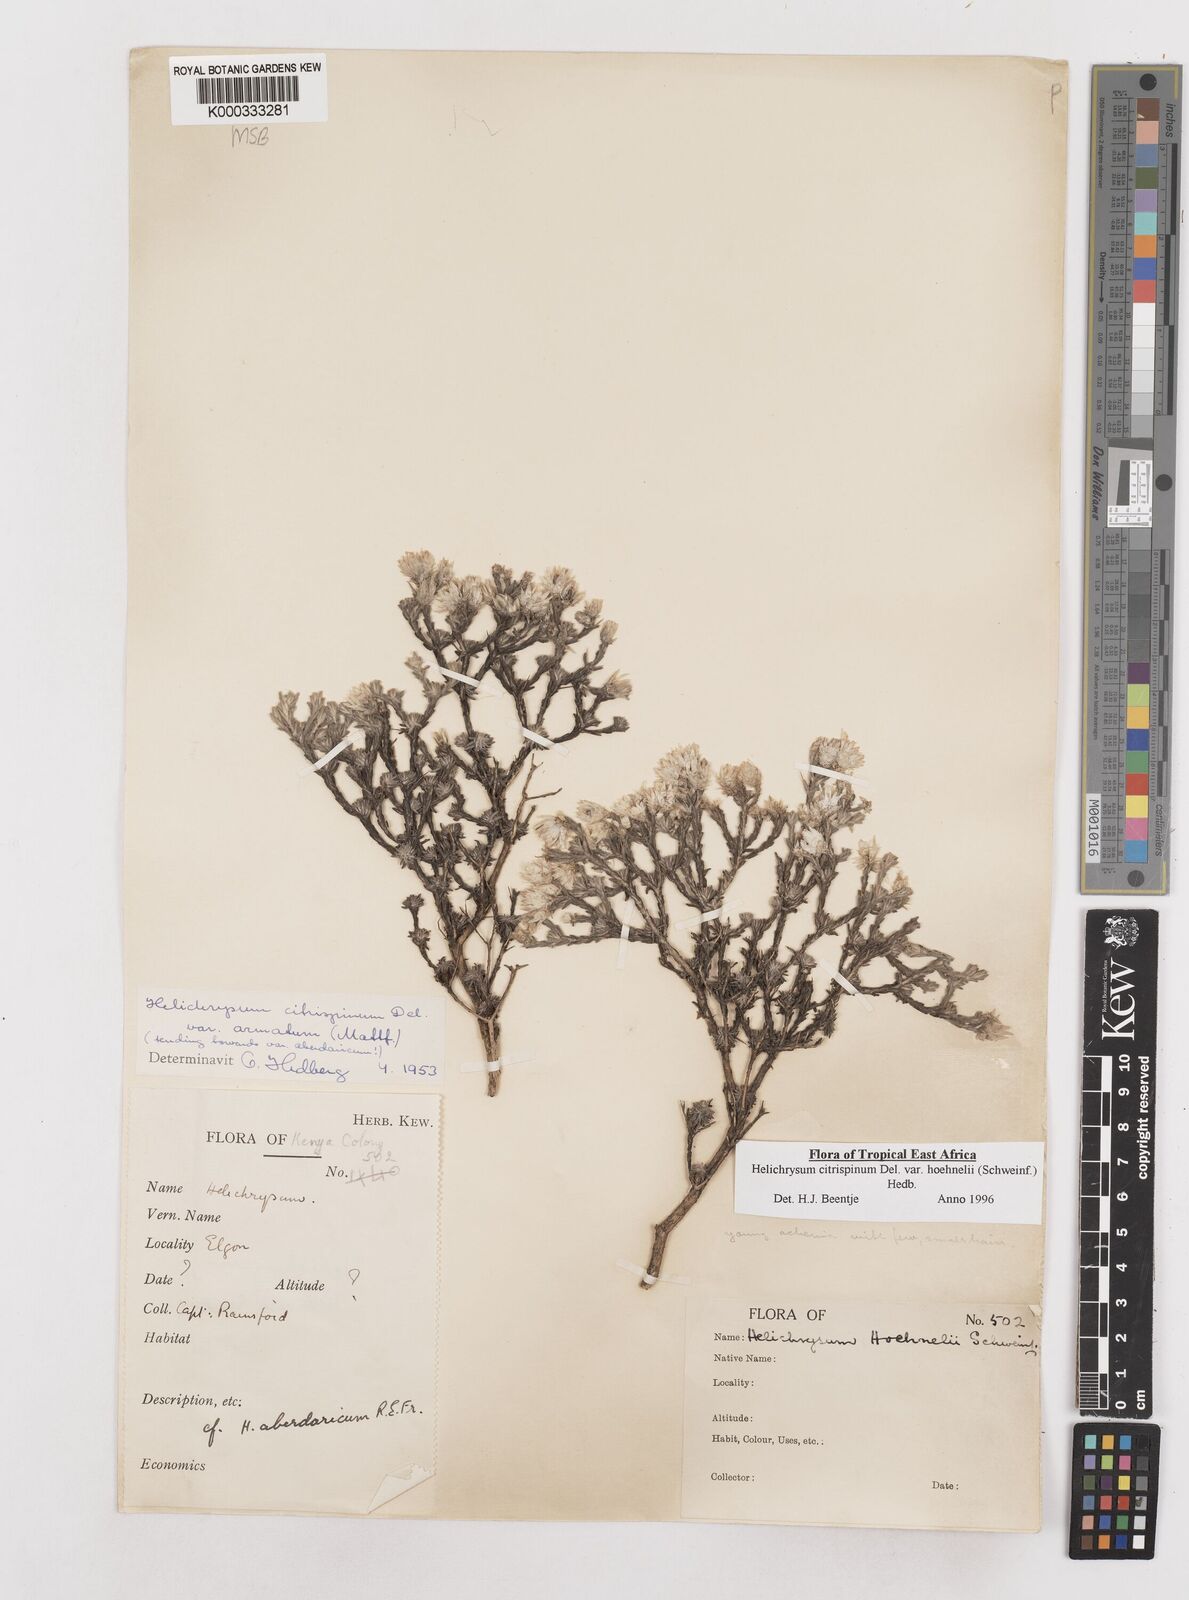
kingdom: Plantae
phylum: Tracheophyta
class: Magnoliopsida
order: Asterales
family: Asteraceae
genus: Helichrysum
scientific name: Helichrysum citrispinum
